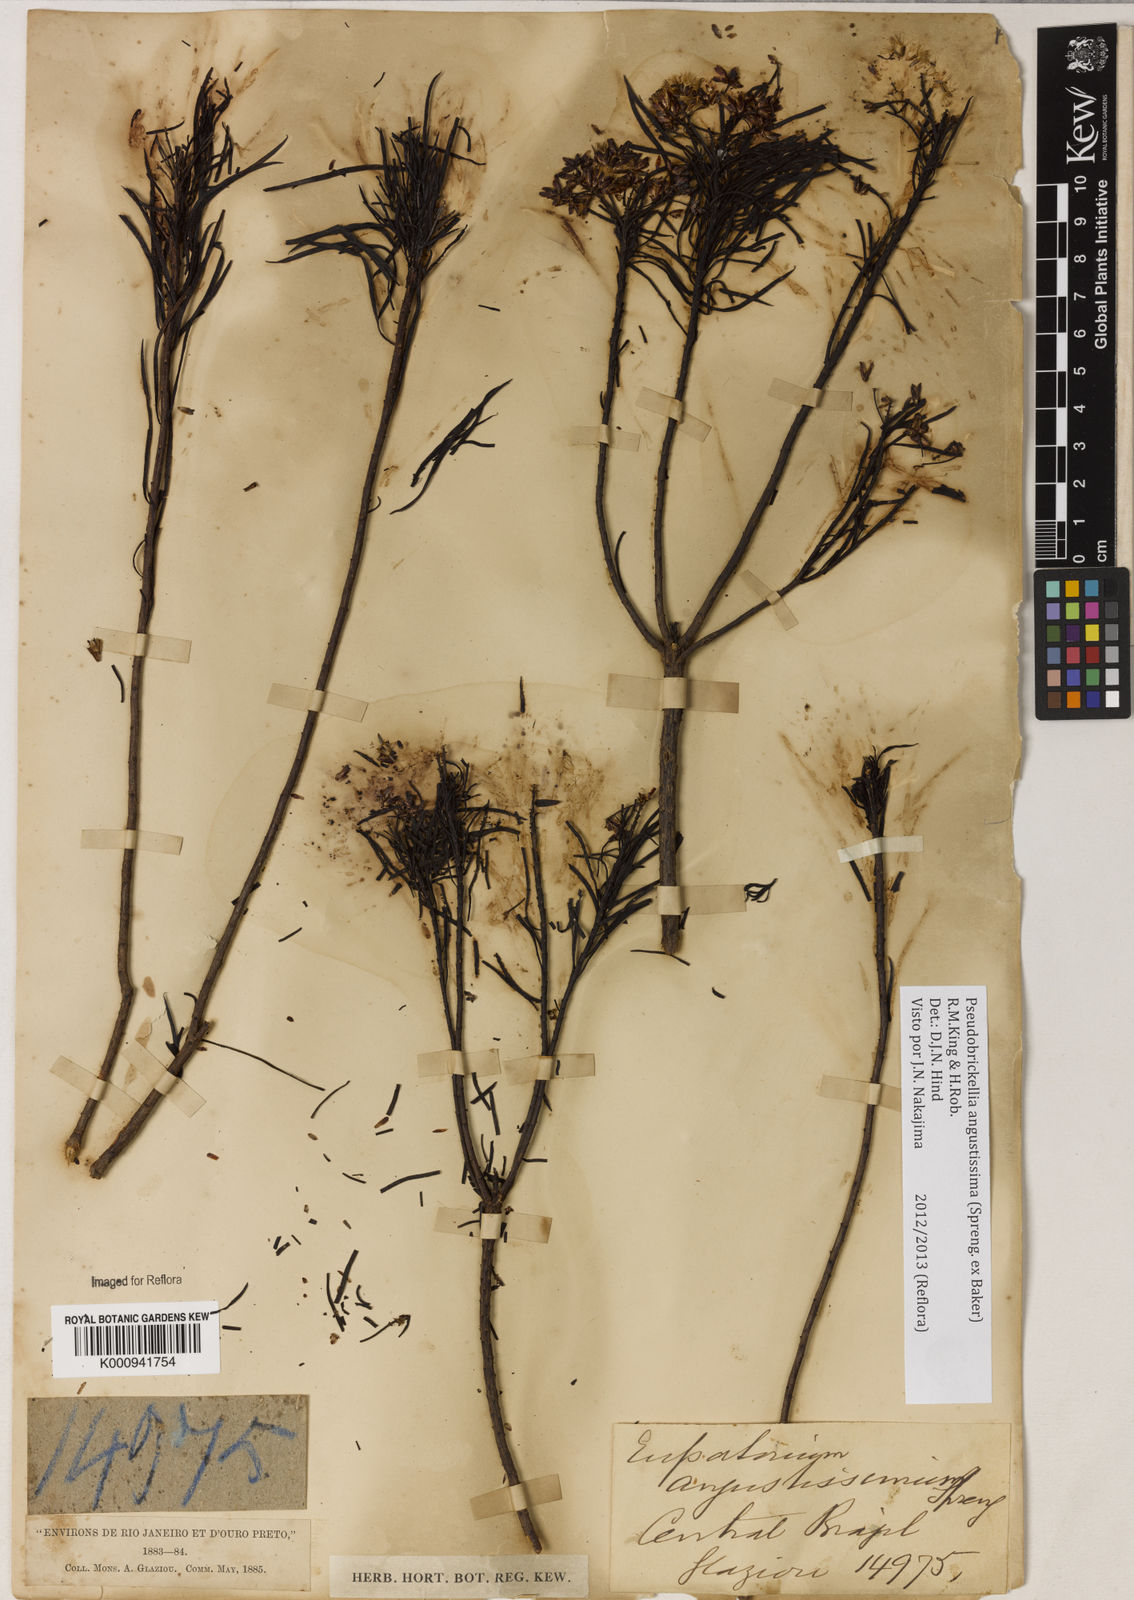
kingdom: Plantae
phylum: Tracheophyta
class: Magnoliopsida
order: Asterales
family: Asteraceae
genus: Pseudobrickellia
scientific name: Pseudobrickellia angustissima
